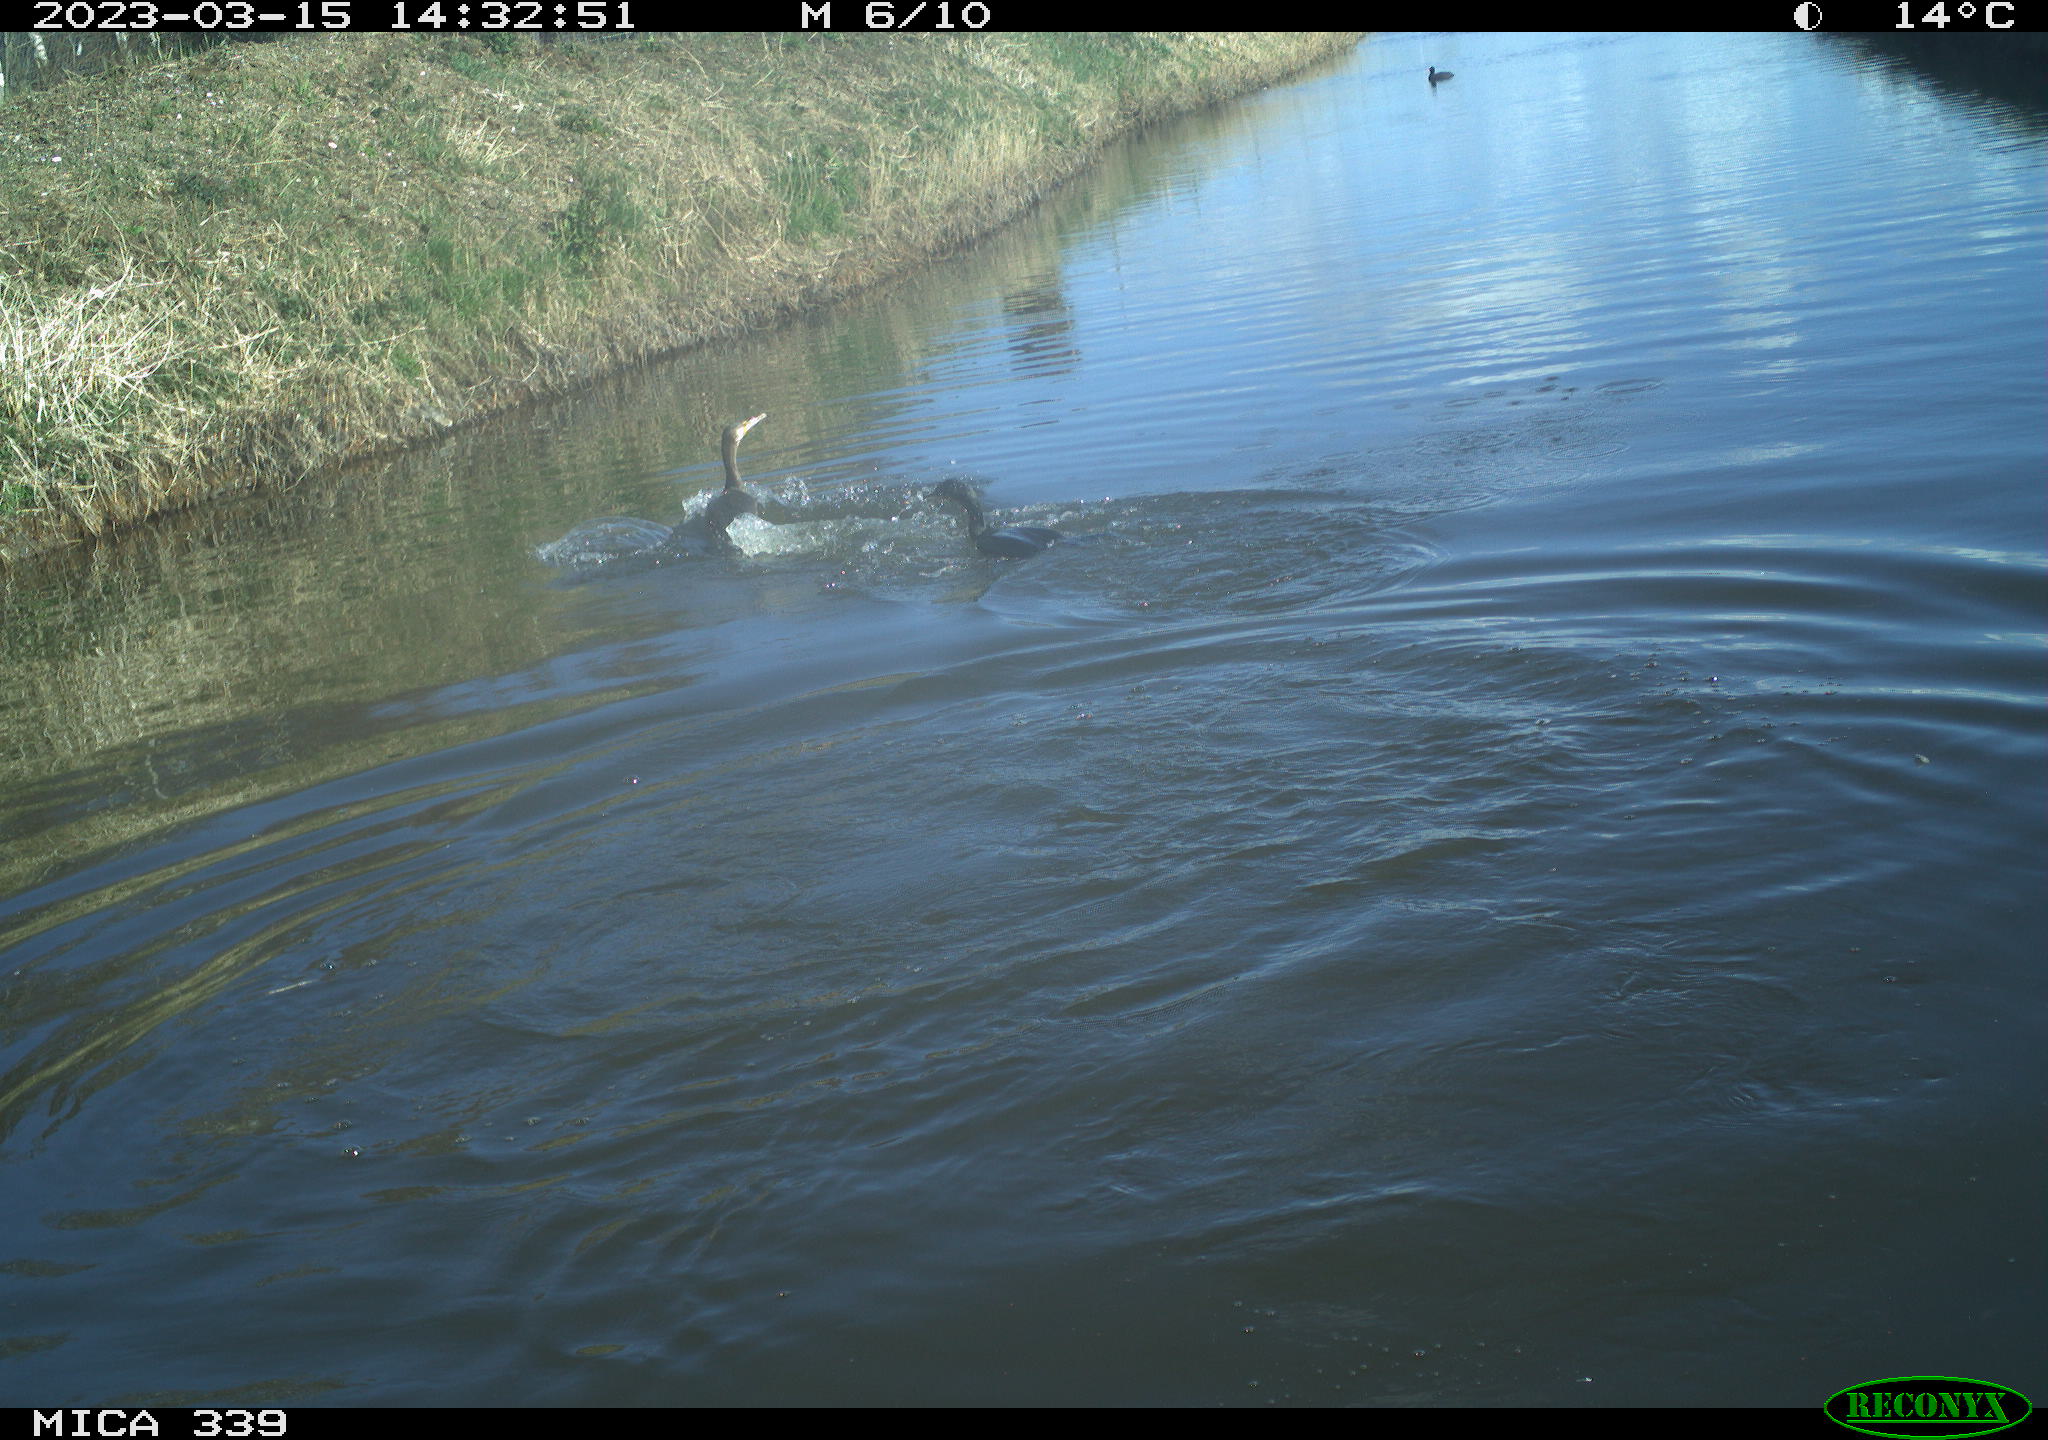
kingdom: Animalia
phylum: Chordata
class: Aves
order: Anseriformes
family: Anatidae
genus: Anas
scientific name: Anas
